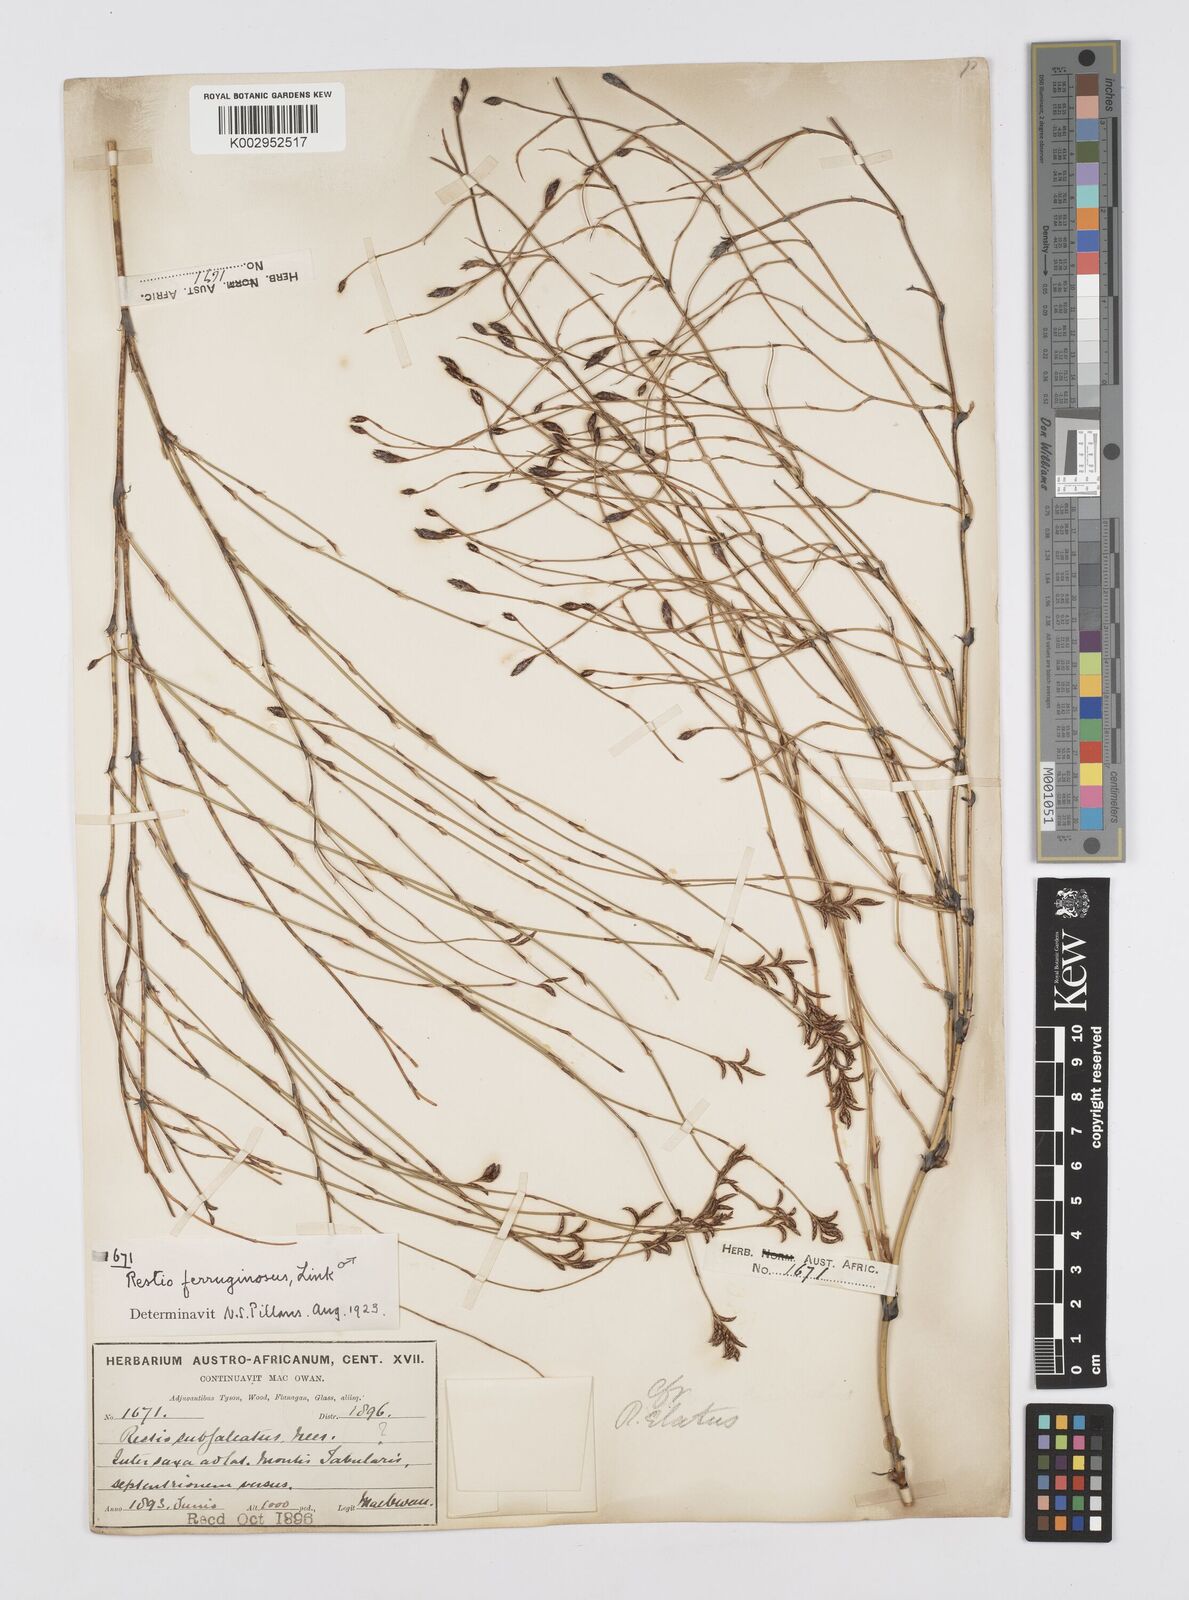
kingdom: Plantae
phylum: Tracheophyta
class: Liliopsida
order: Poales
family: Restionaceae
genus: Restio
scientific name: Restio gaudichaudianus
